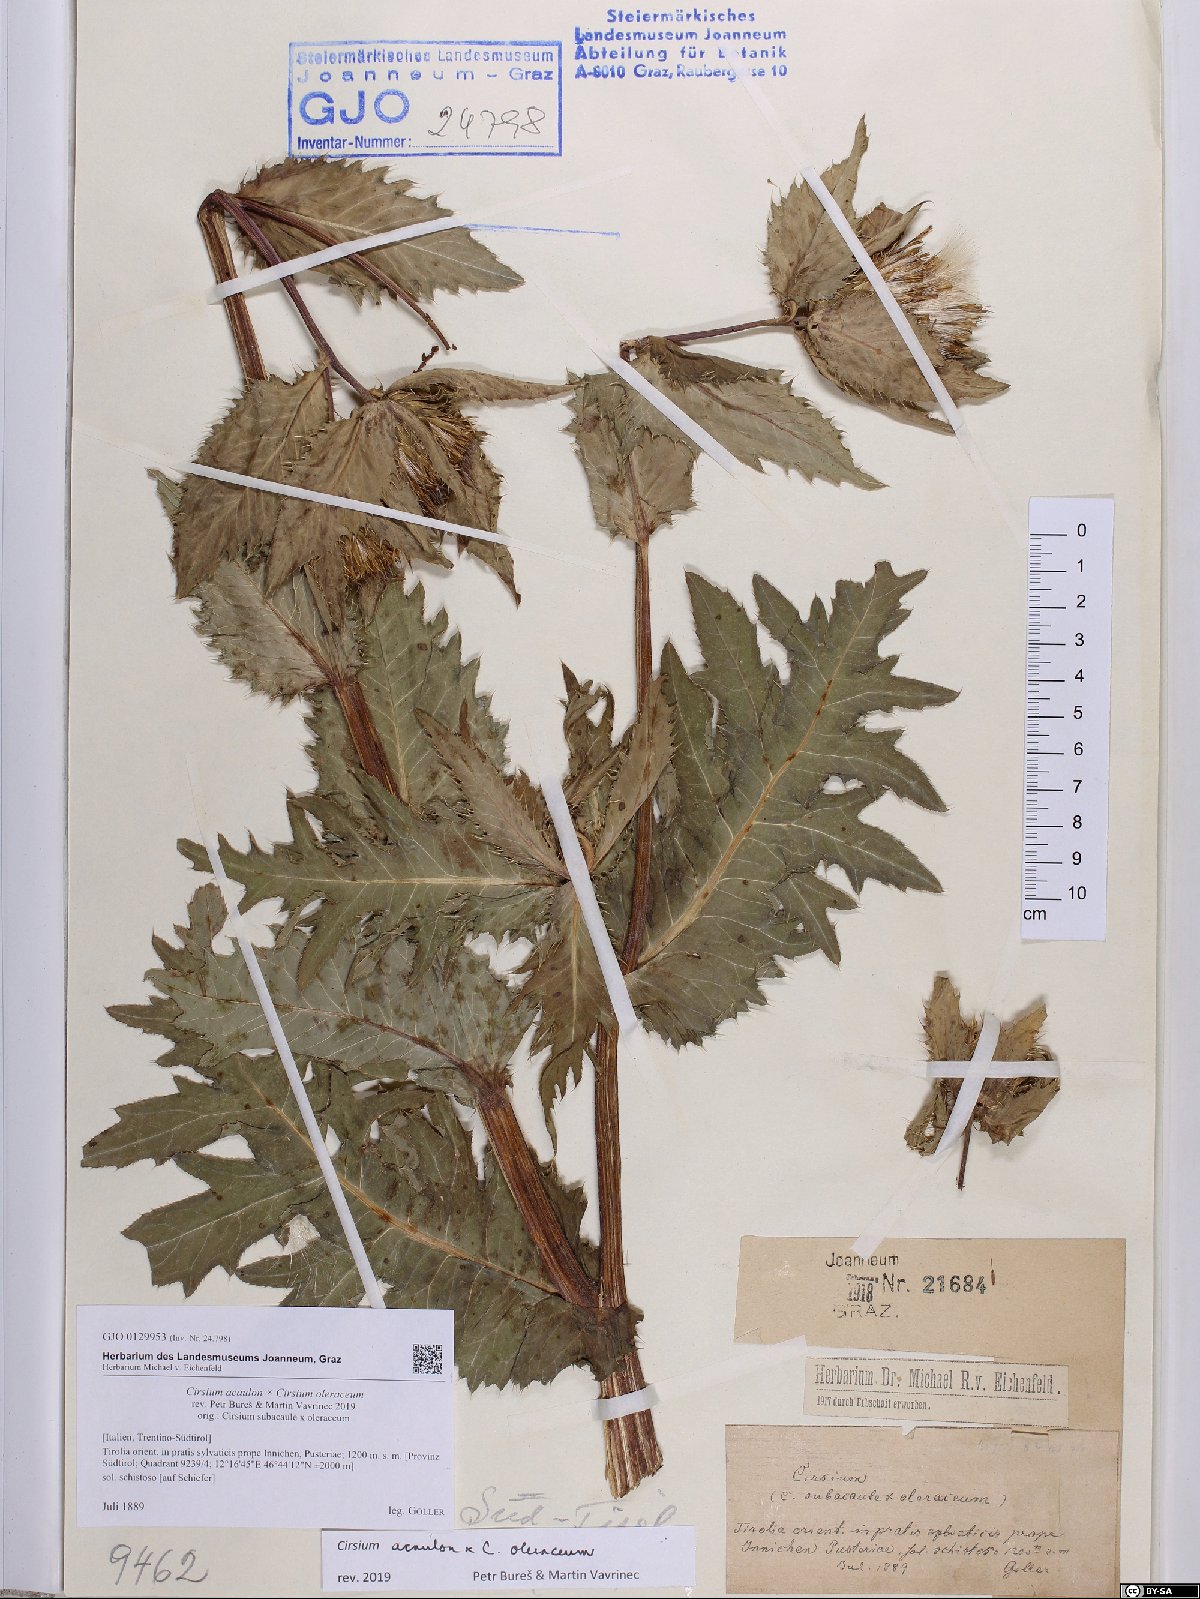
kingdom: Plantae
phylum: Tracheophyta
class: Magnoliopsida
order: Asterales
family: Asteraceae
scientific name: Asteraceae
